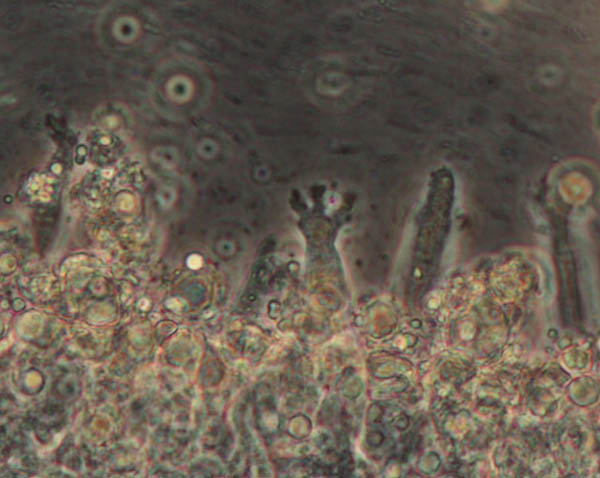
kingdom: Fungi
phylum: Basidiomycota
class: Agaricomycetes
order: Agaricales
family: Tricholomataceae
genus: Mycenella
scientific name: Mycenella lasiosperma
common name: stjernesporet dughat
